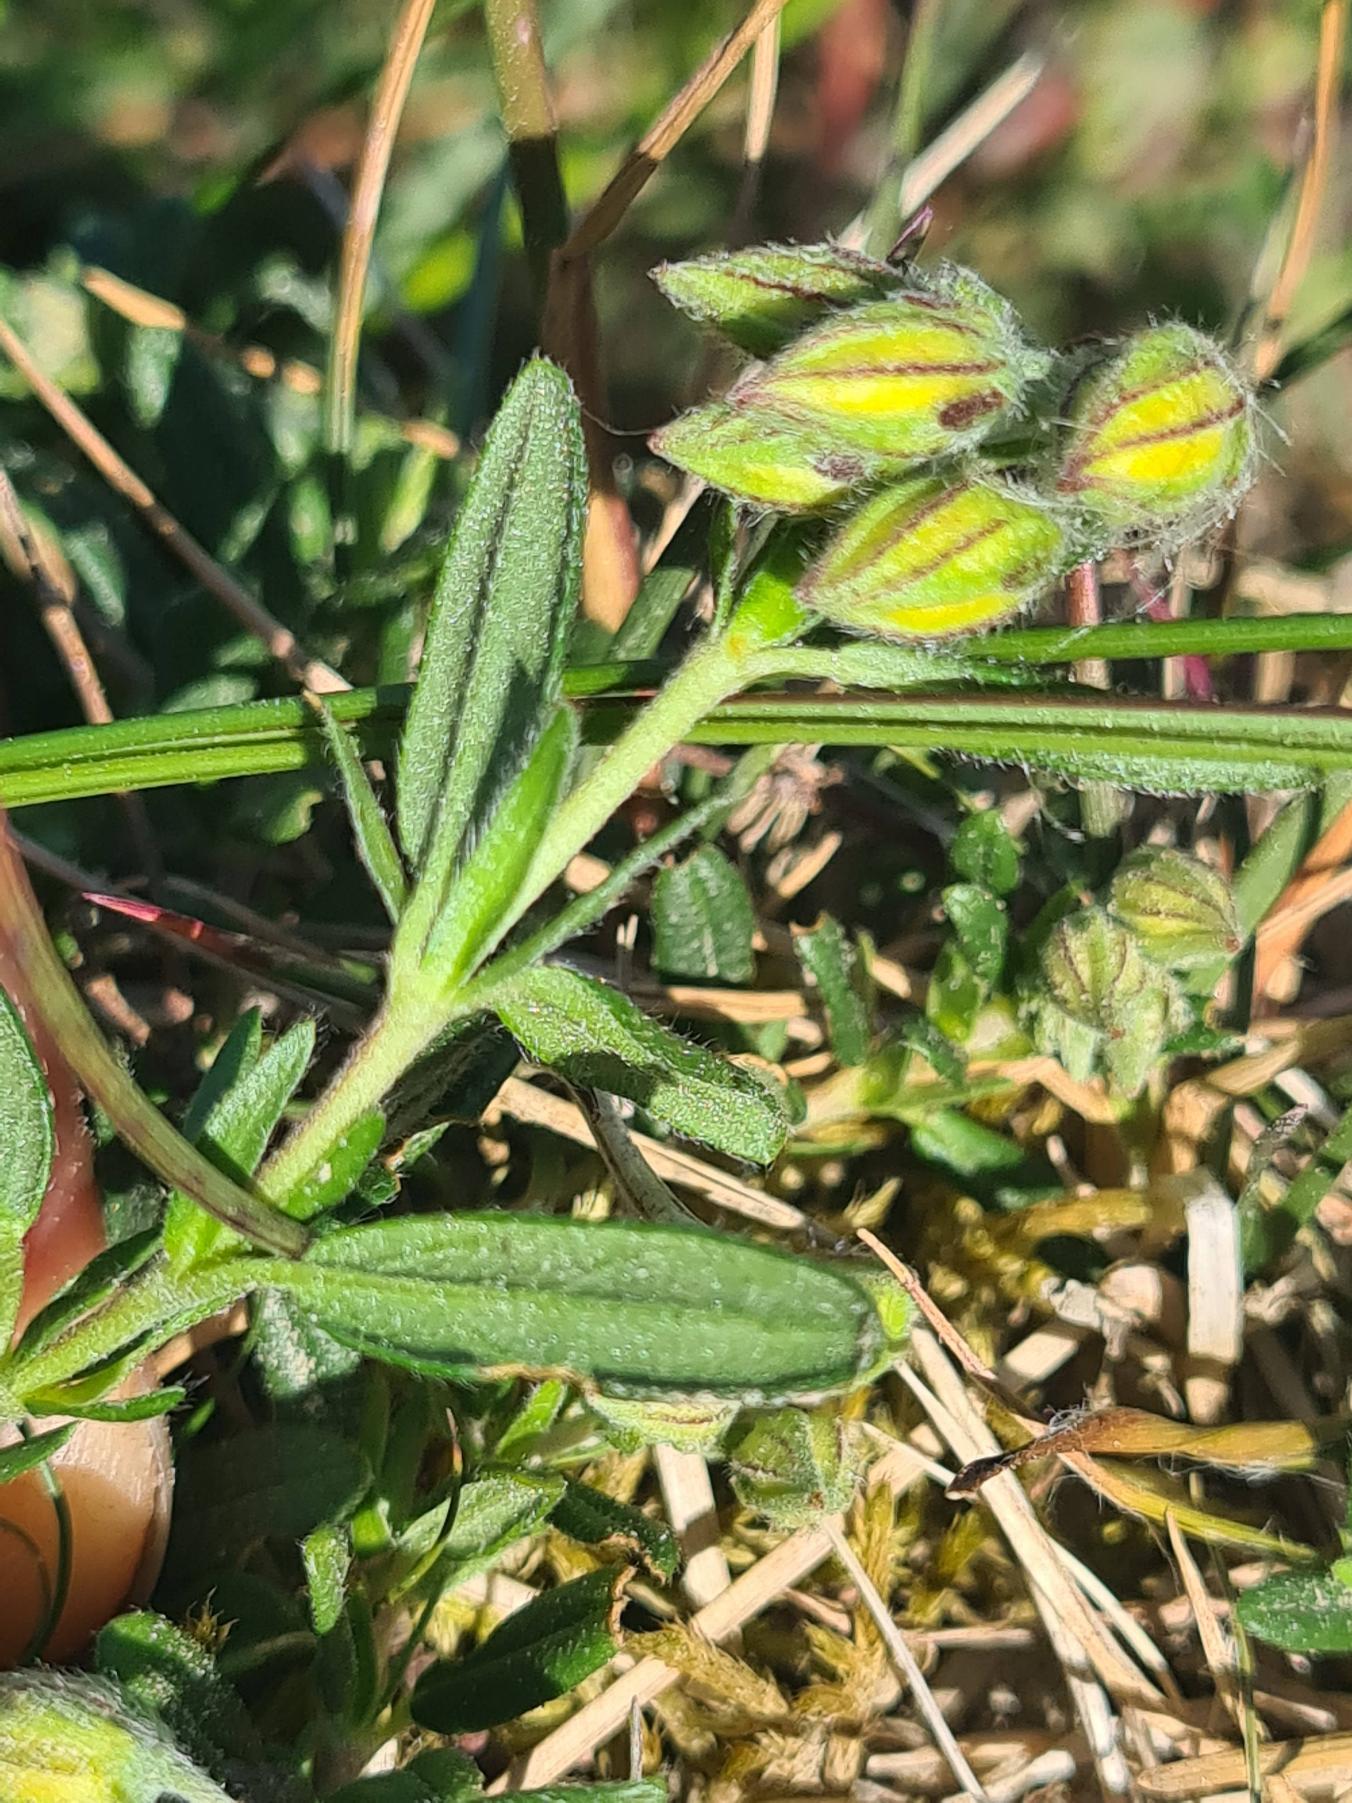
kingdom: Plantae
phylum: Tracheophyta
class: Magnoliopsida
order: Malvales
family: Cistaceae
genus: Helianthemum
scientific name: Helianthemum nummularium
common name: Bakke-soløje
